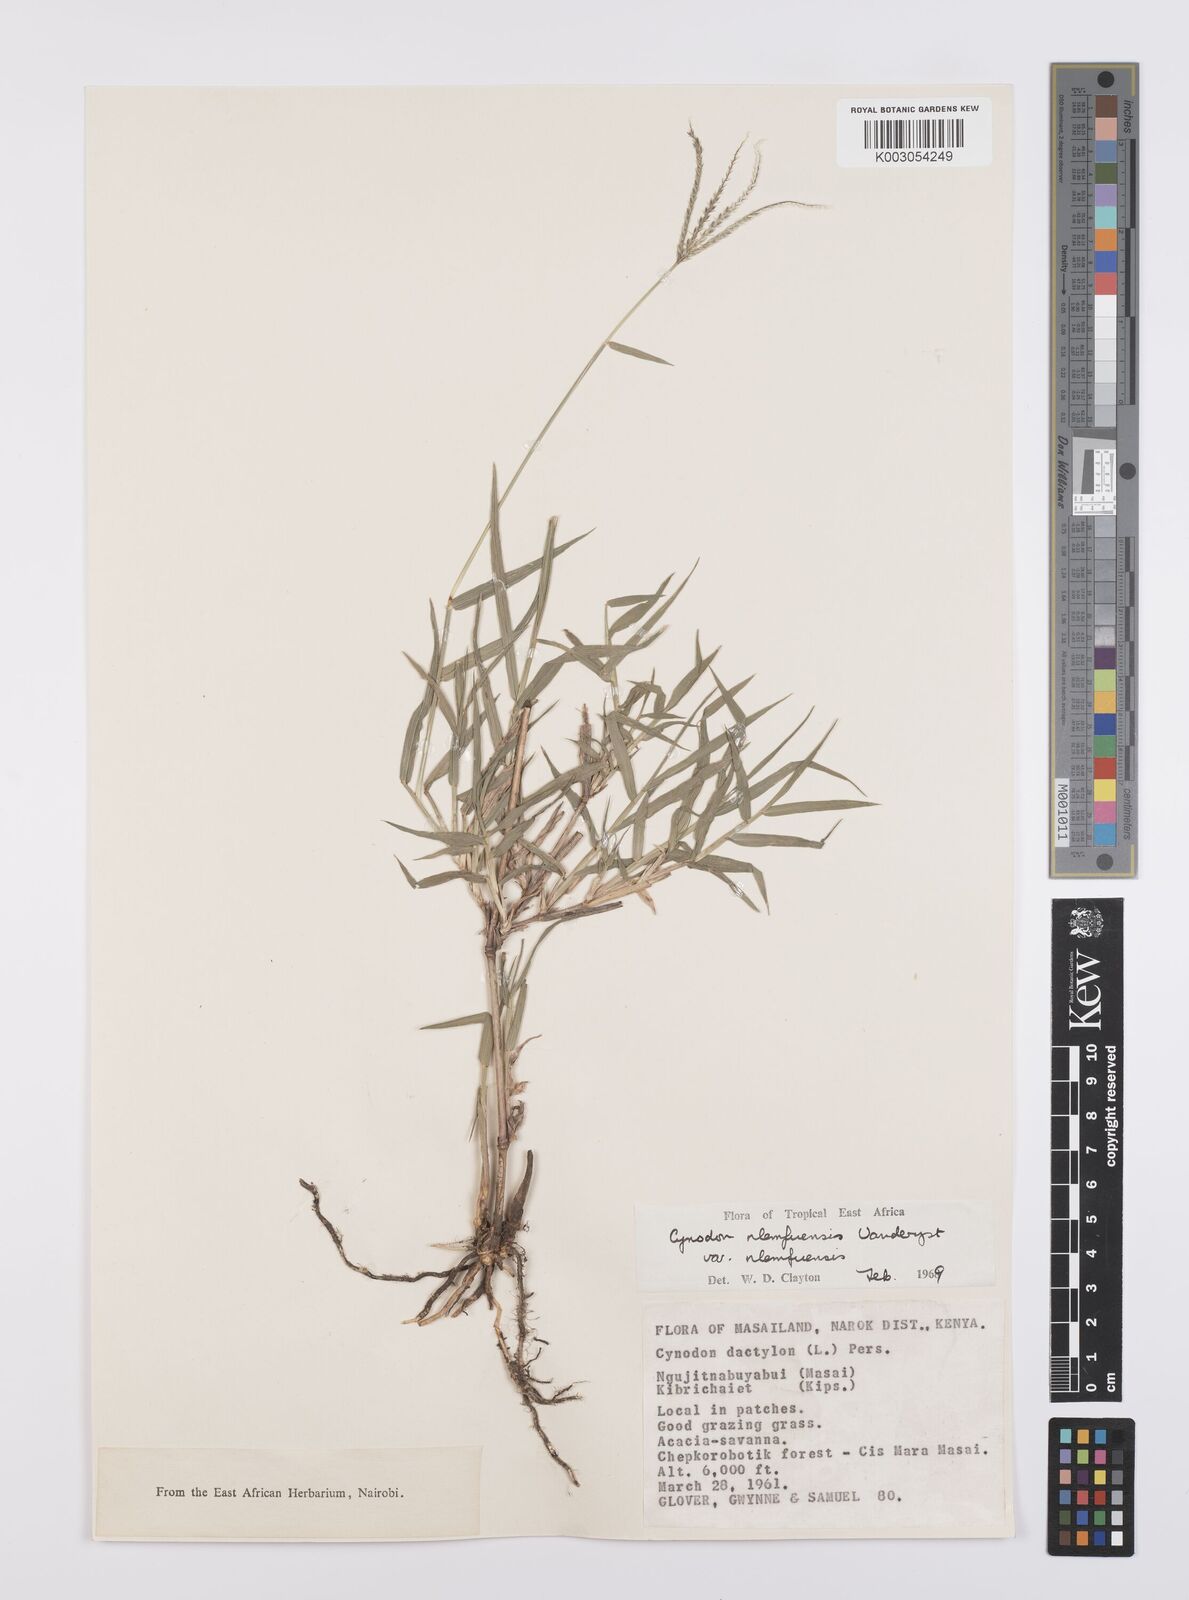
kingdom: Plantae
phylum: Tracheophyta
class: Liliopsida
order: Poales
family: Poaceae
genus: Cynodon
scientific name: Cynodon nlemfuensis
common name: African bermudagrass
